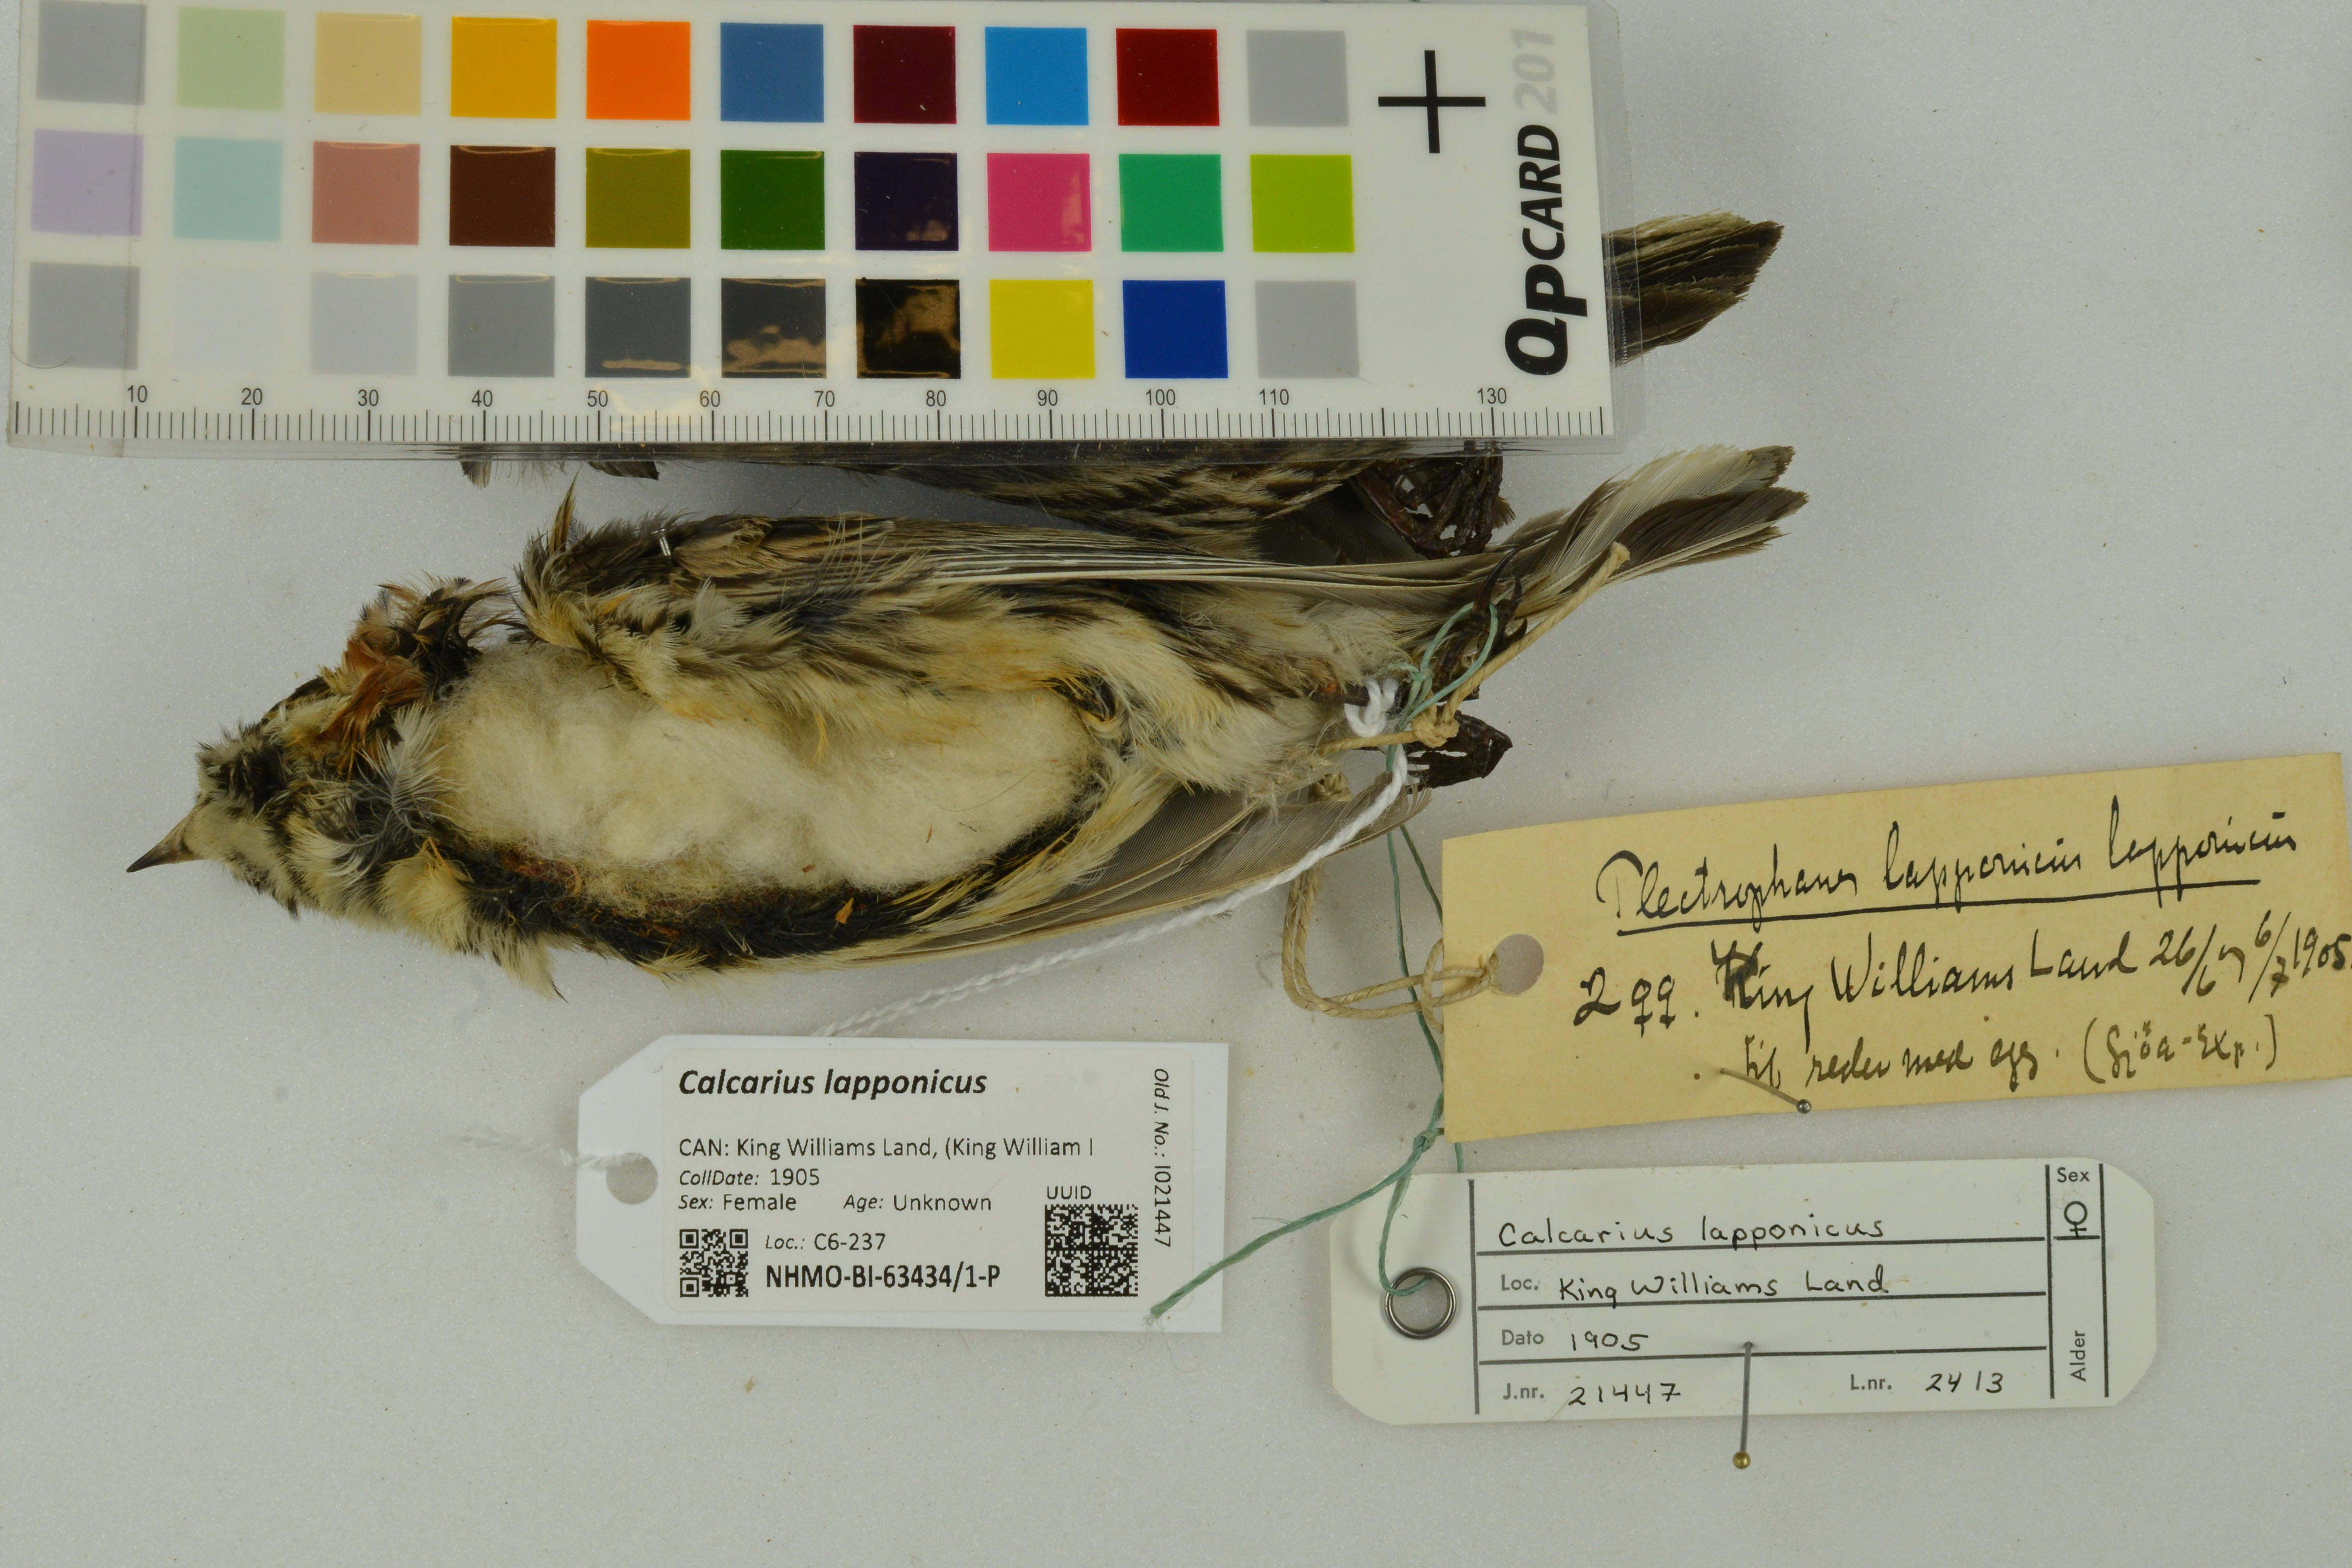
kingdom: Animalia
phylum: Chordata
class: Aves
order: Passeriformes
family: Calcariidae
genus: Calcarius
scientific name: Calcarius lapponicus
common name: Lapland longspur
